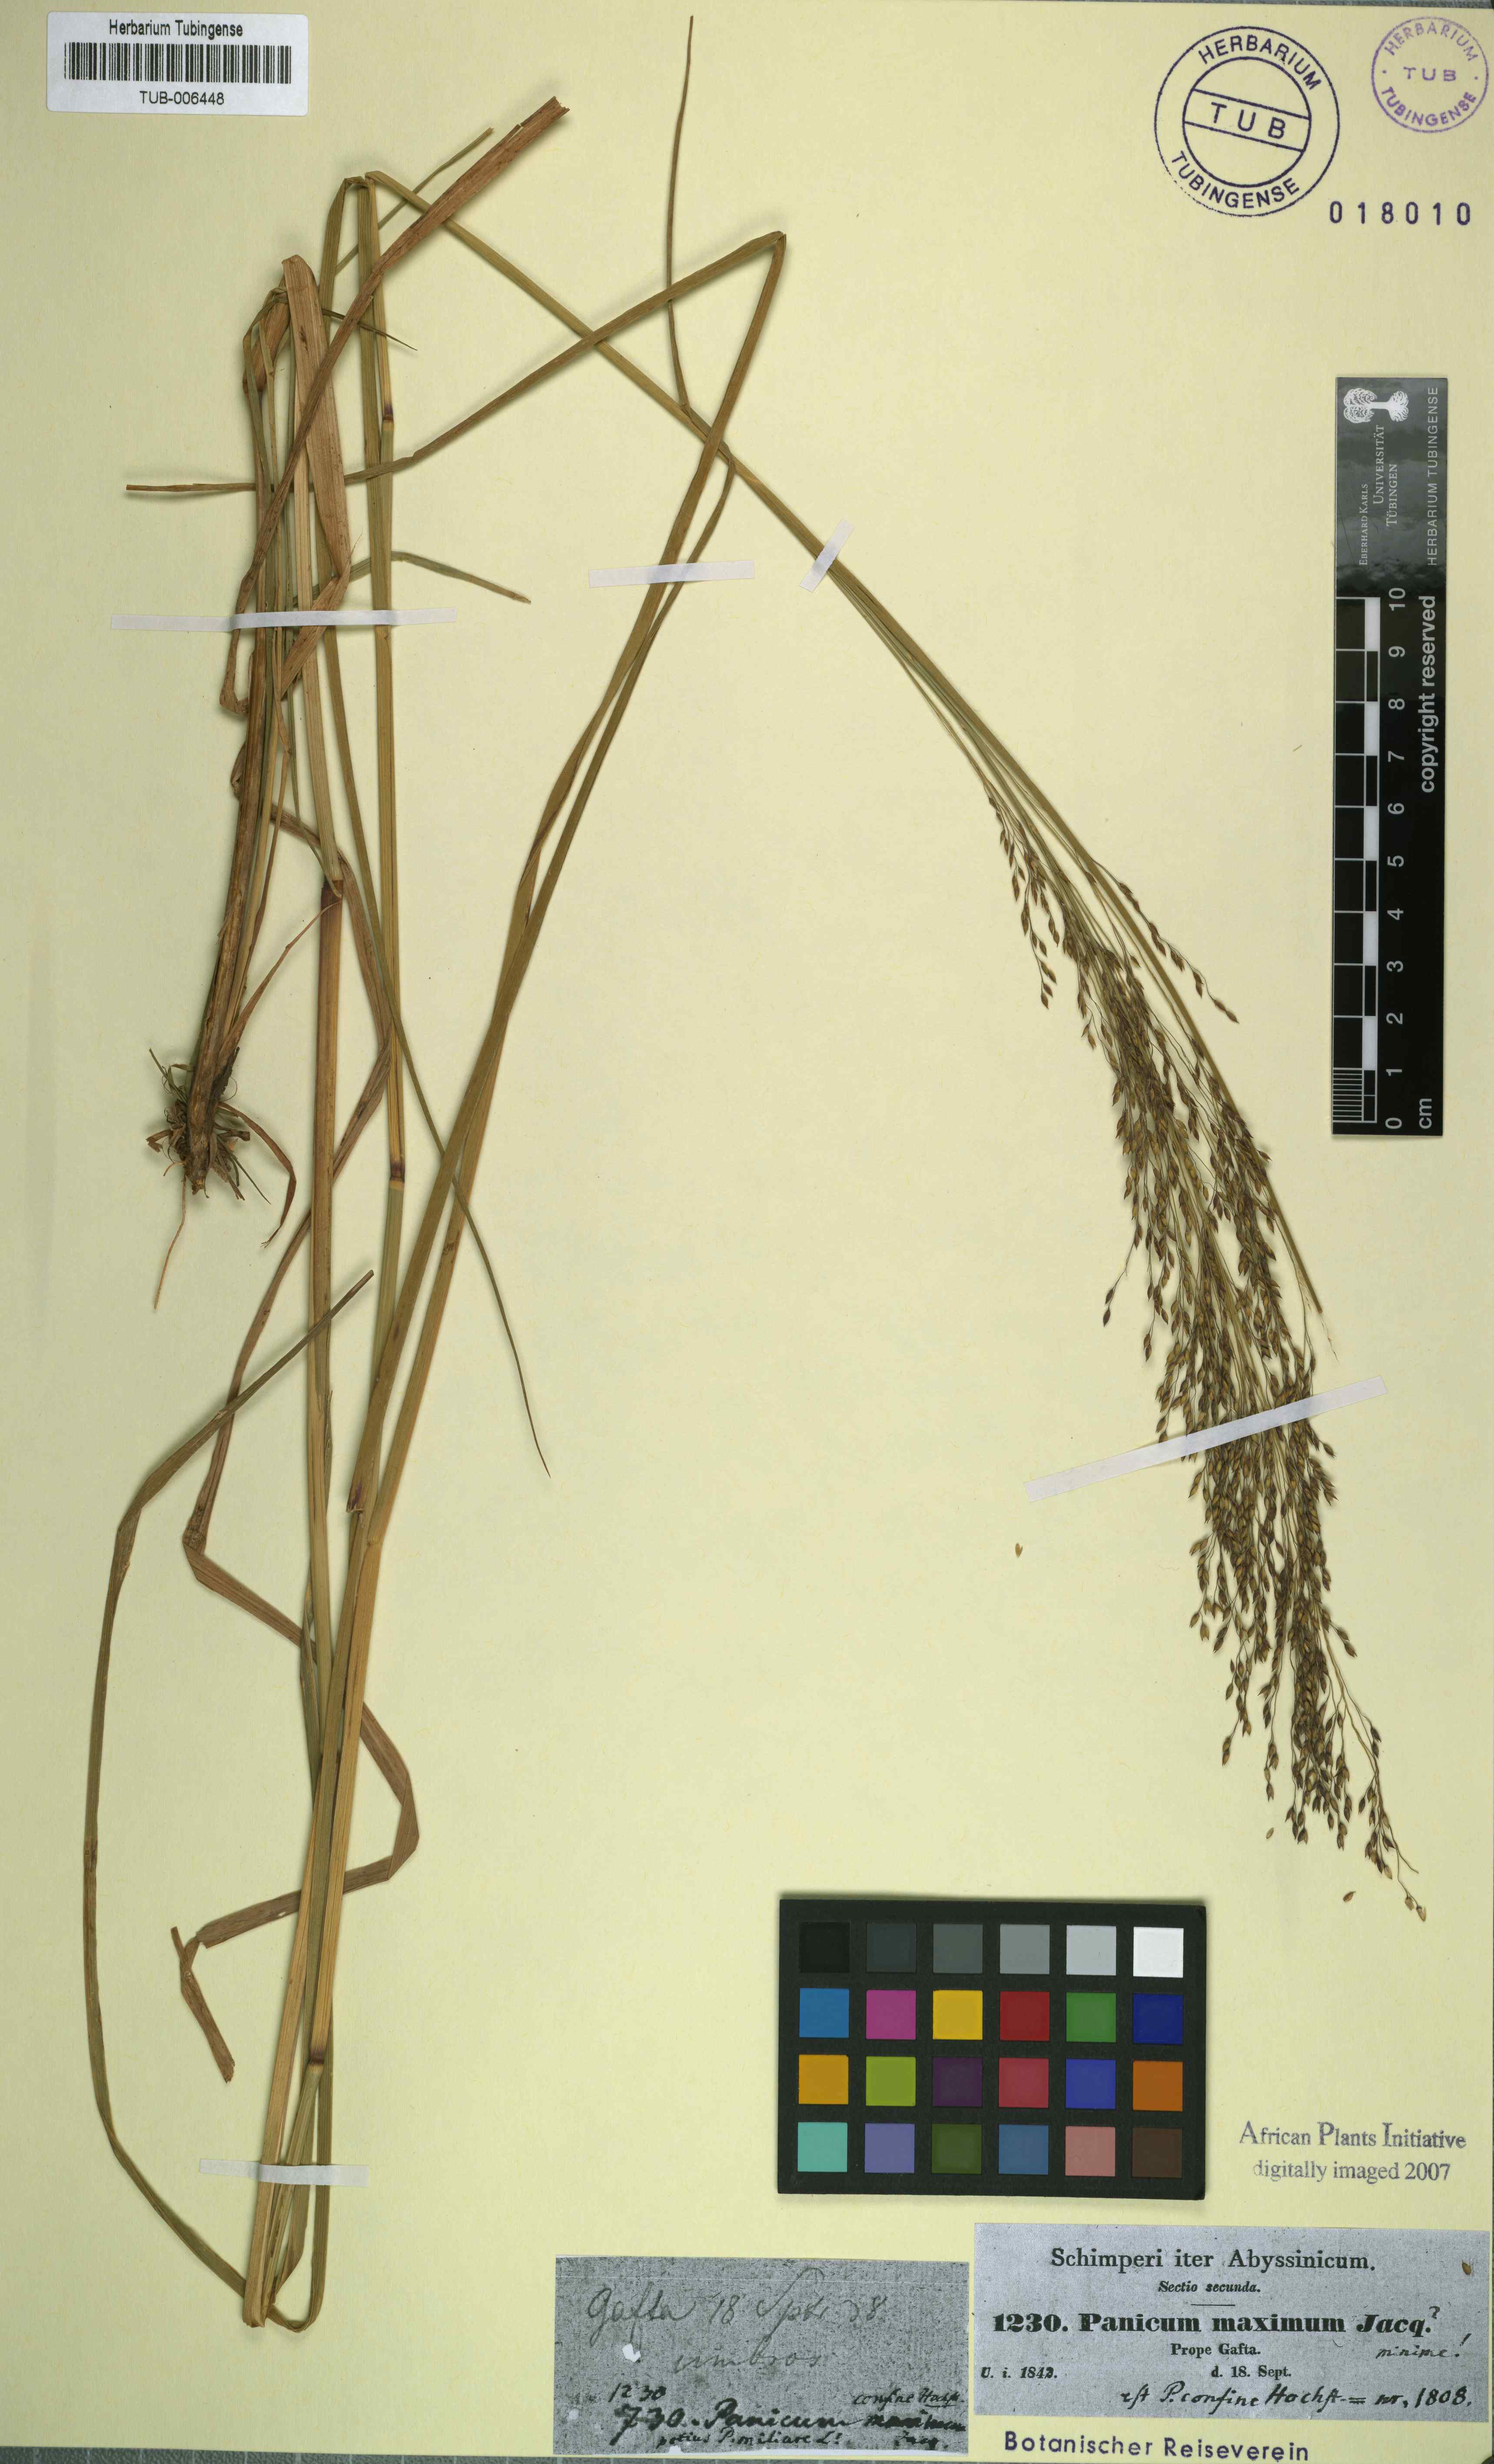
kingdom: Plantae
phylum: Tracheophyta
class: Liliopsida
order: Poales
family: Poaceae
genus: Megathyrsus
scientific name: Megathyrsus maximus
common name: Guineagrass
